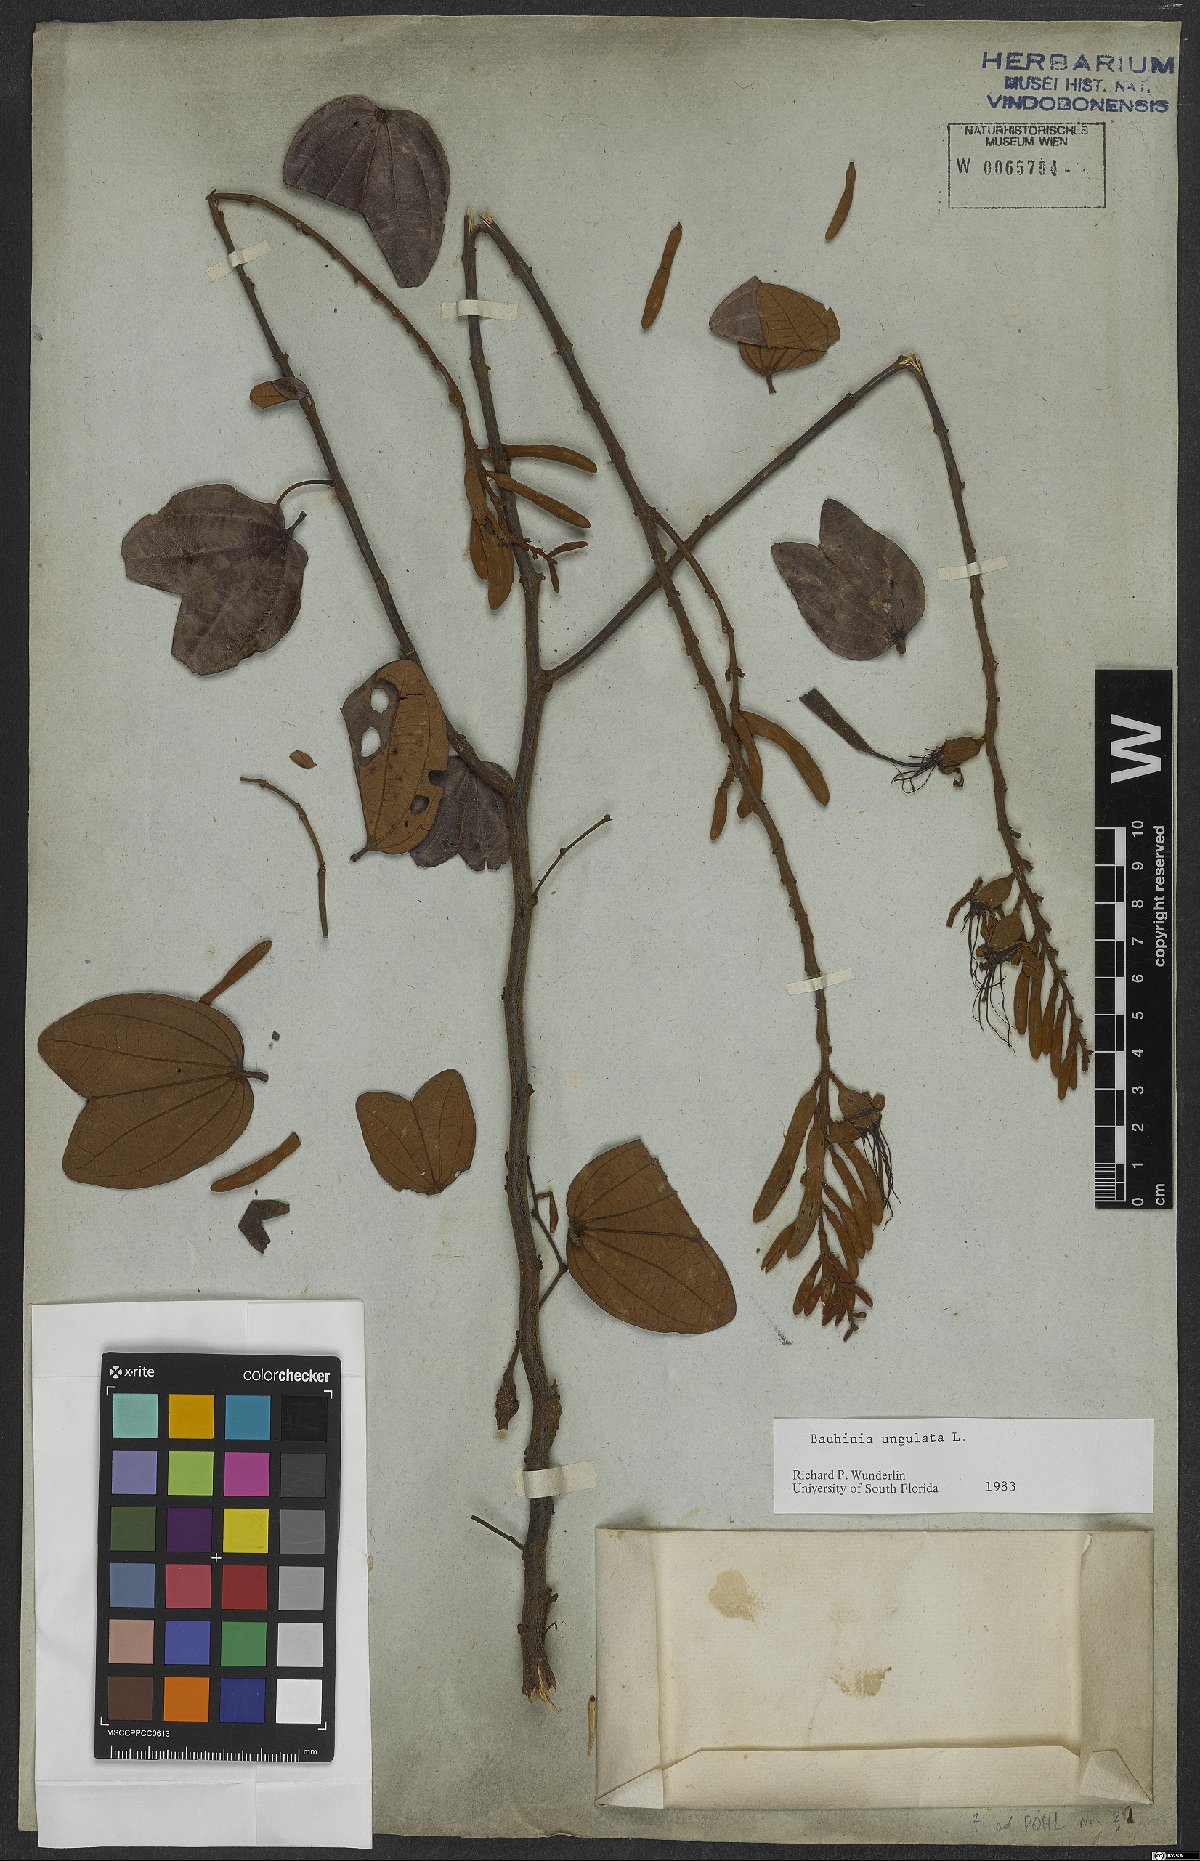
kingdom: Plantae
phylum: Tracheophyta
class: Magnoliopsida
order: Fabales
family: Fabaceae
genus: Bauhinia
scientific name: Bauhinia ungulata
